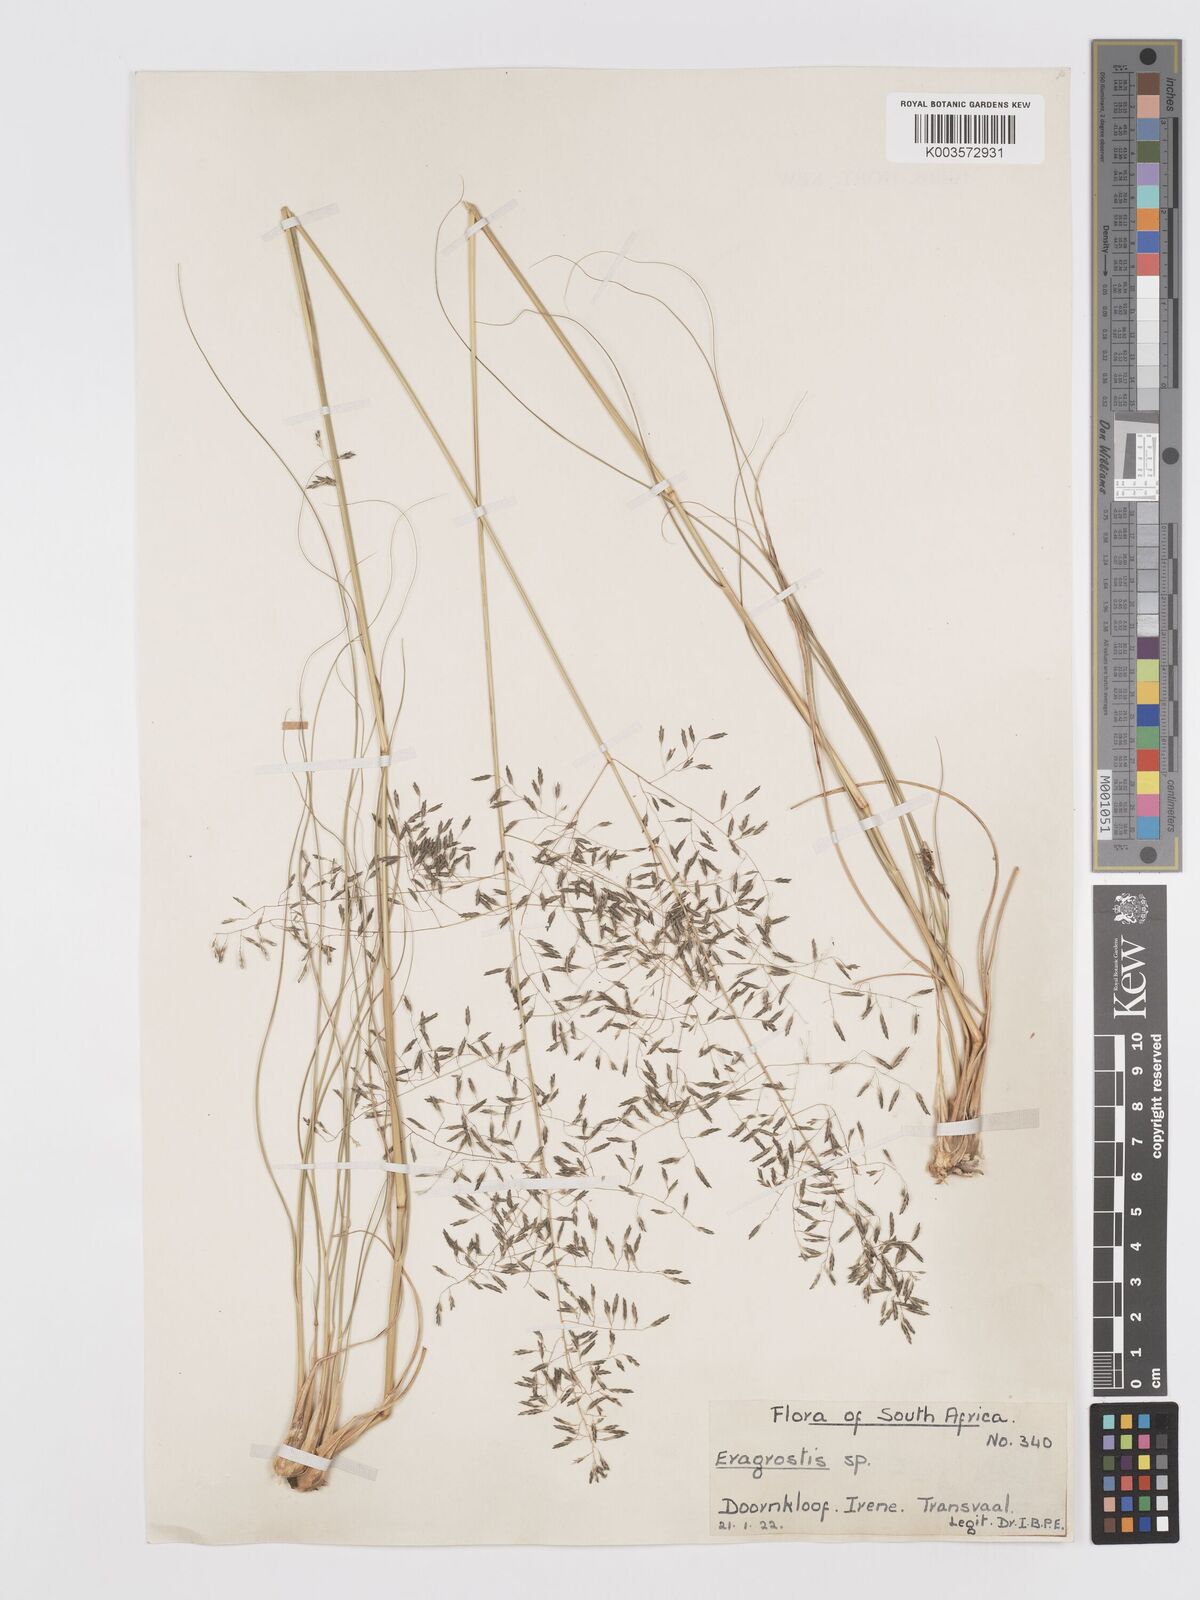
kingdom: Plantae
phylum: Tracheophyta
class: Liliopsida
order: Poales
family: Poaceae
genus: Eragrostis
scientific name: Eragrostis curvula
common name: African love-grass
